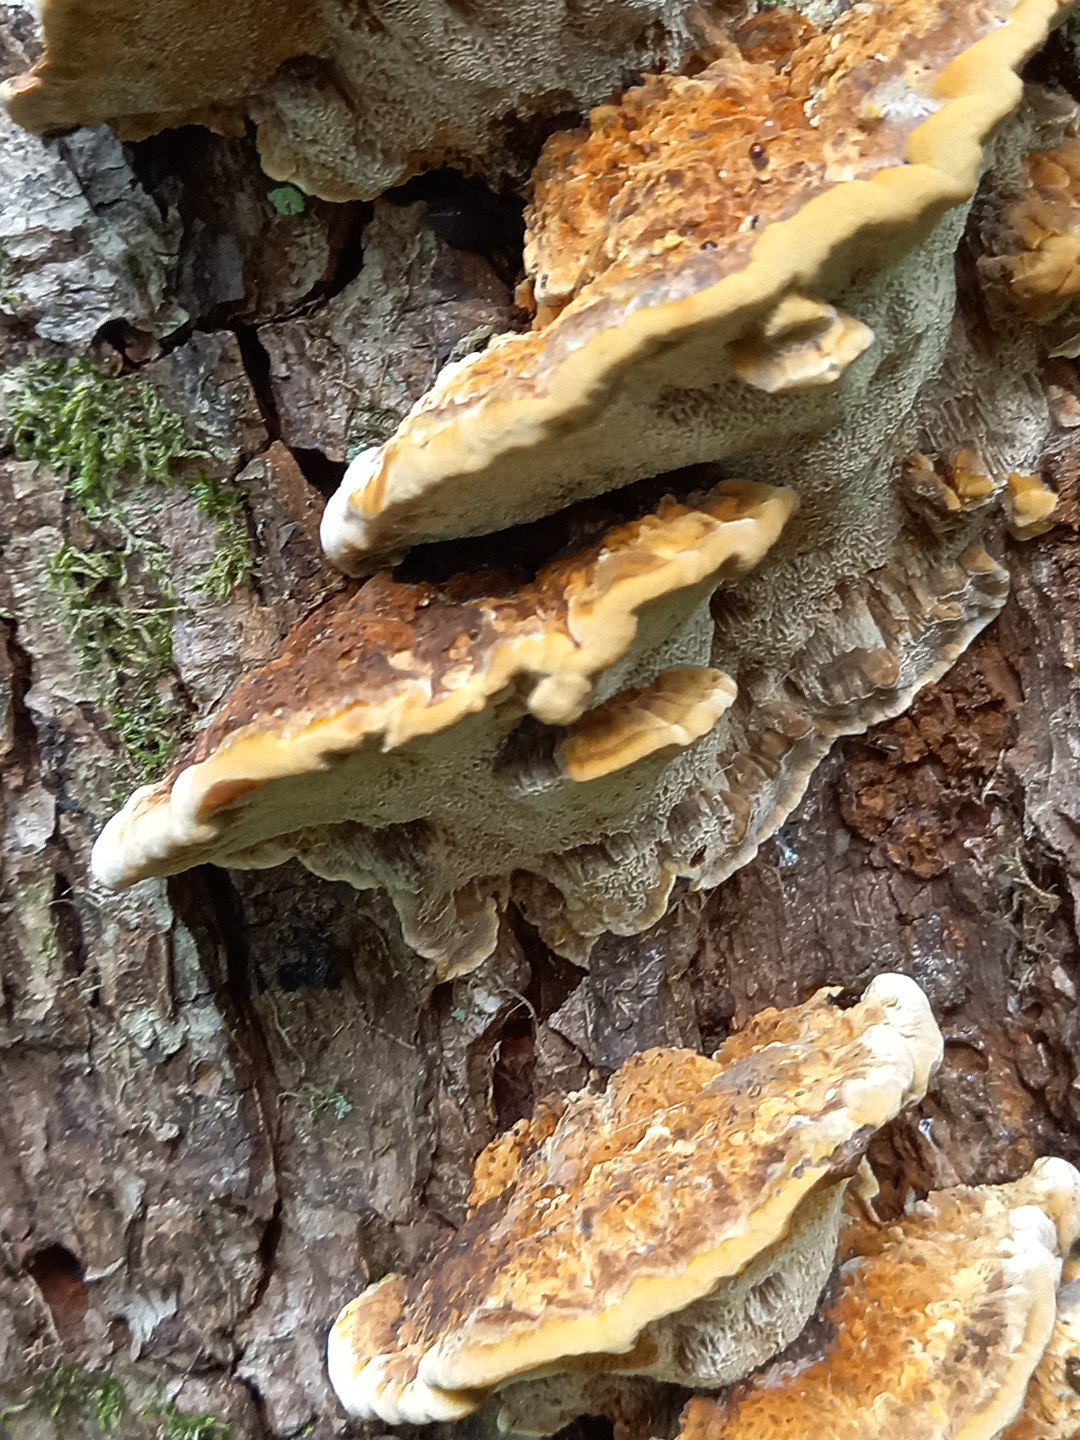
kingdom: Fungi
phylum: Basidiomycota
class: Agaricomycetes
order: Hymenochaetales
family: Hymenochaetaceae
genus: Xanthoporia
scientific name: Xanthoporia radiata
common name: elle-spejlporesvamp
